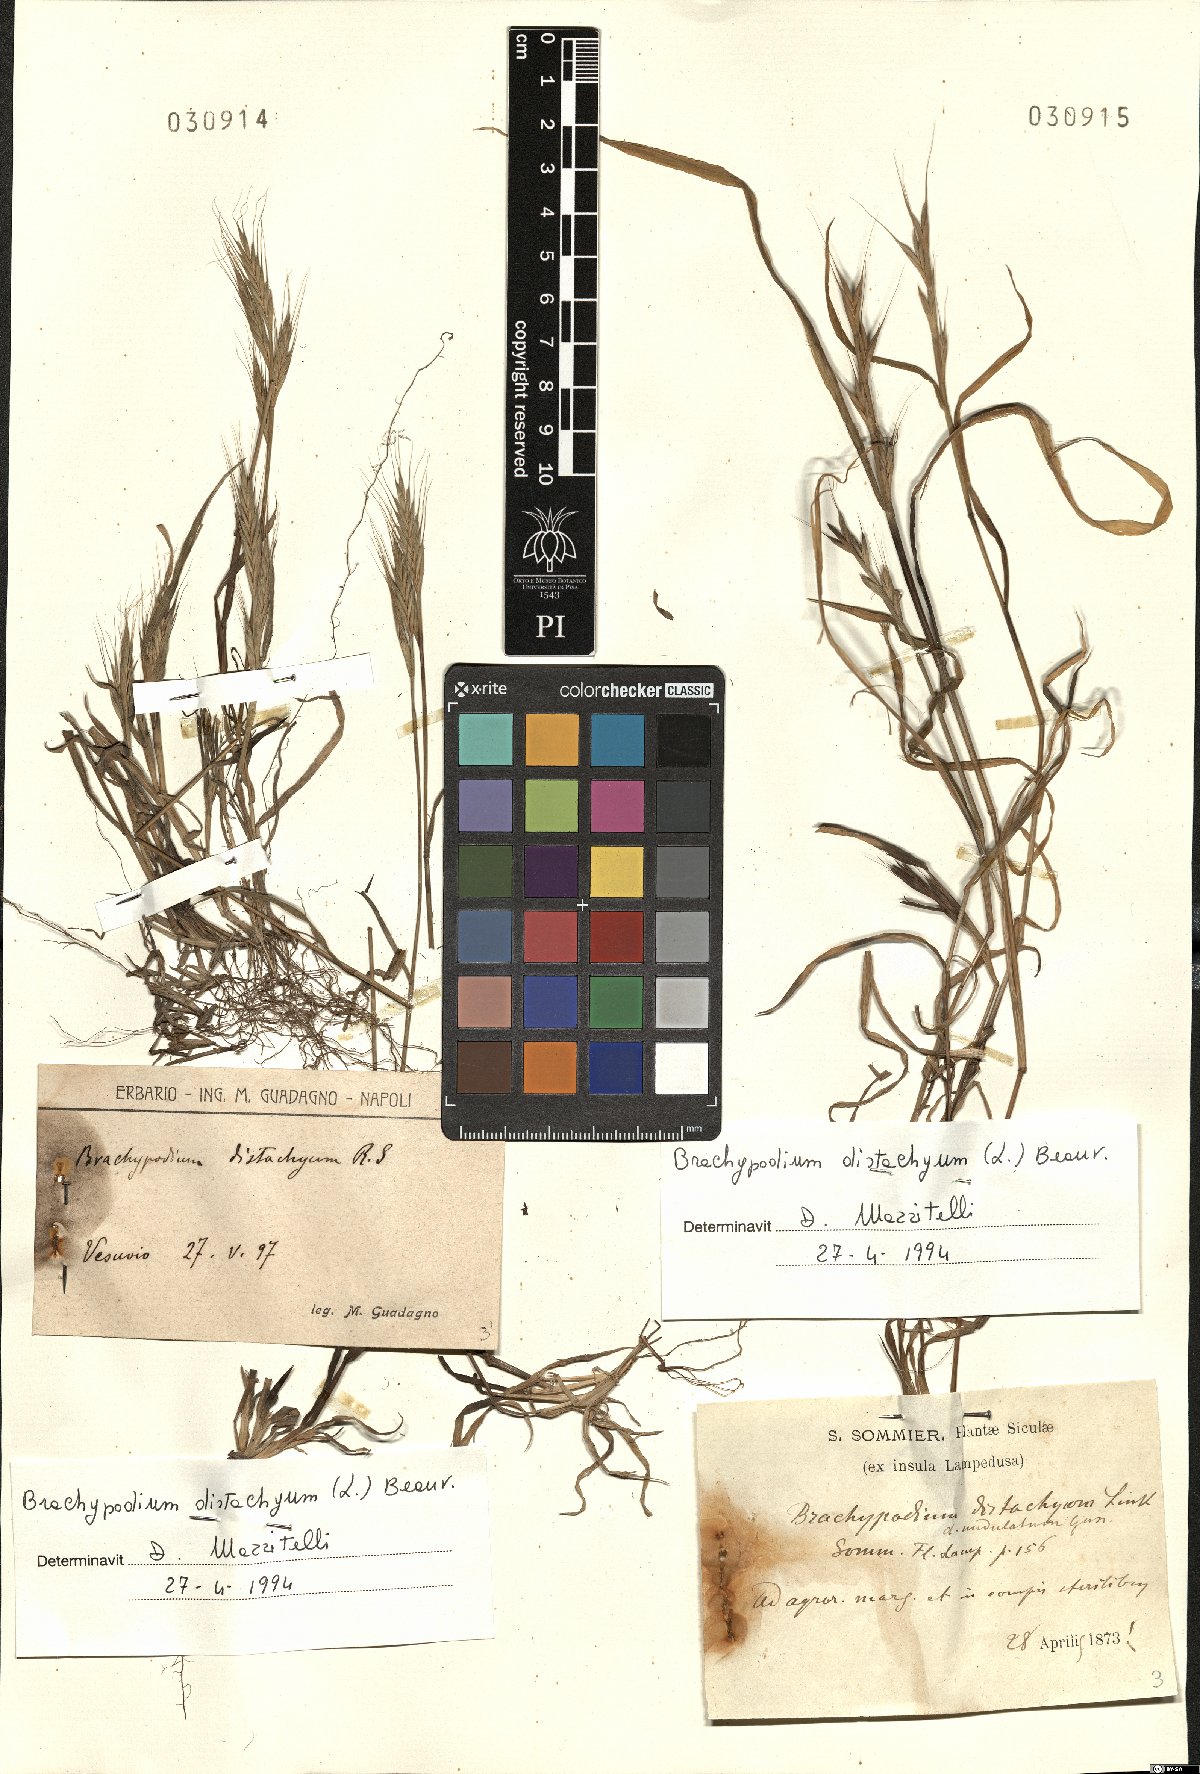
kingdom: Plantae
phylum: Tracheophyta
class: Liliopsida
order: Poales
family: Poaceae
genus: Brachypodium
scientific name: Brachypodium distachyon
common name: Stiff brome
